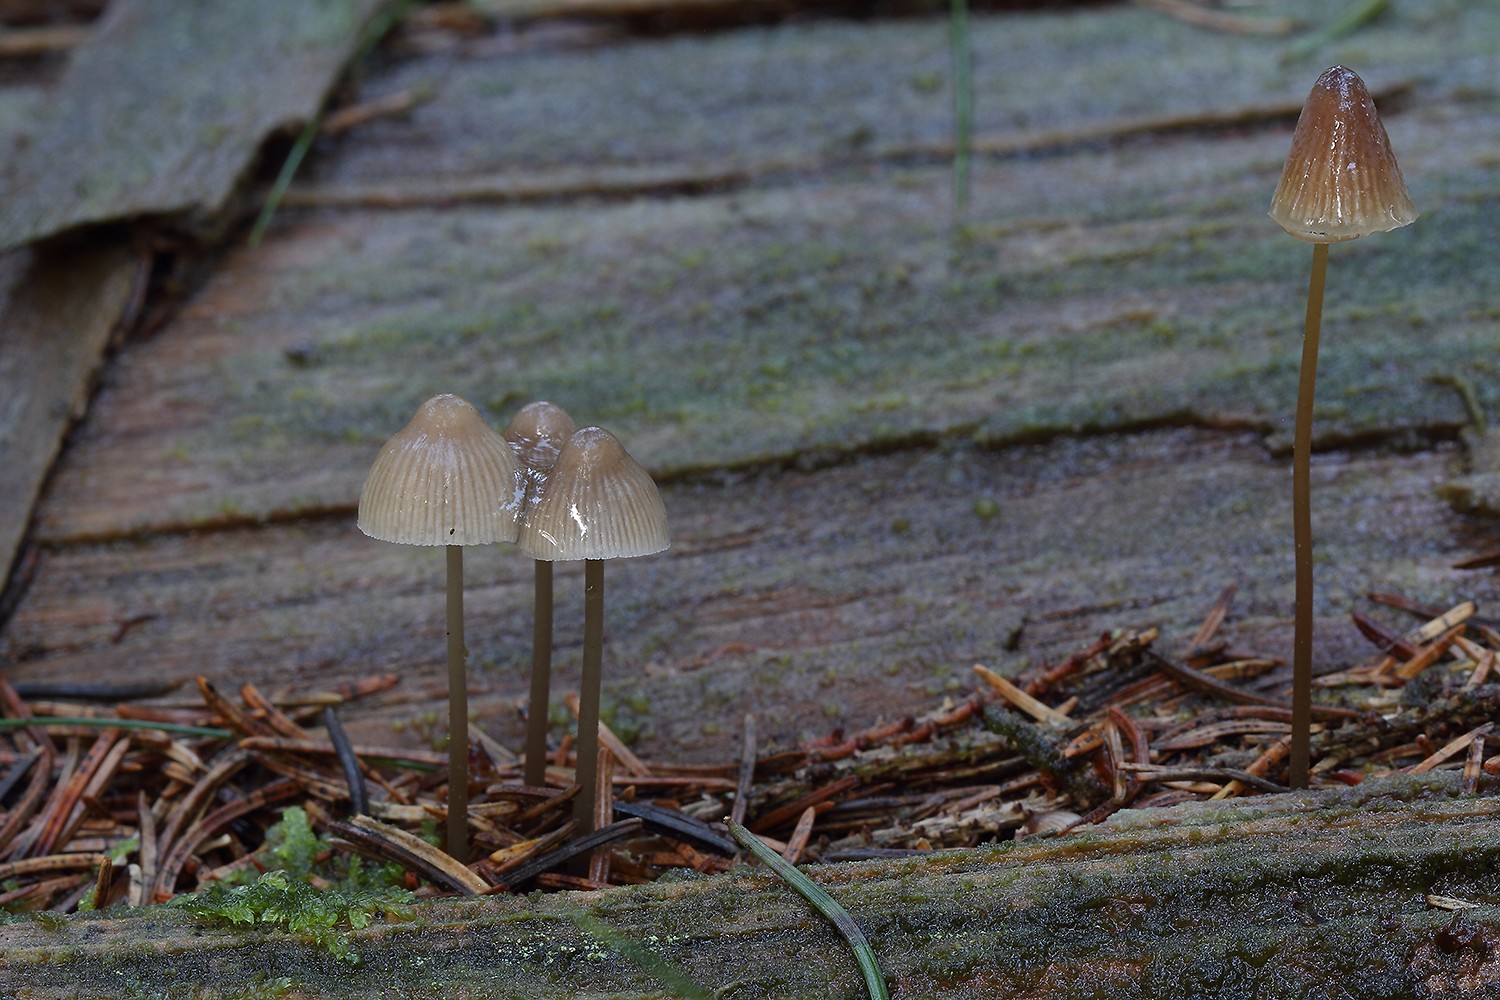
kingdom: Fungi
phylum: Basidiomycota
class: Agaricomycetes
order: Agaricales
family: Mycenaceae
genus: Mycena
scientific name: Mycena filopes
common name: jod-huesvamp
